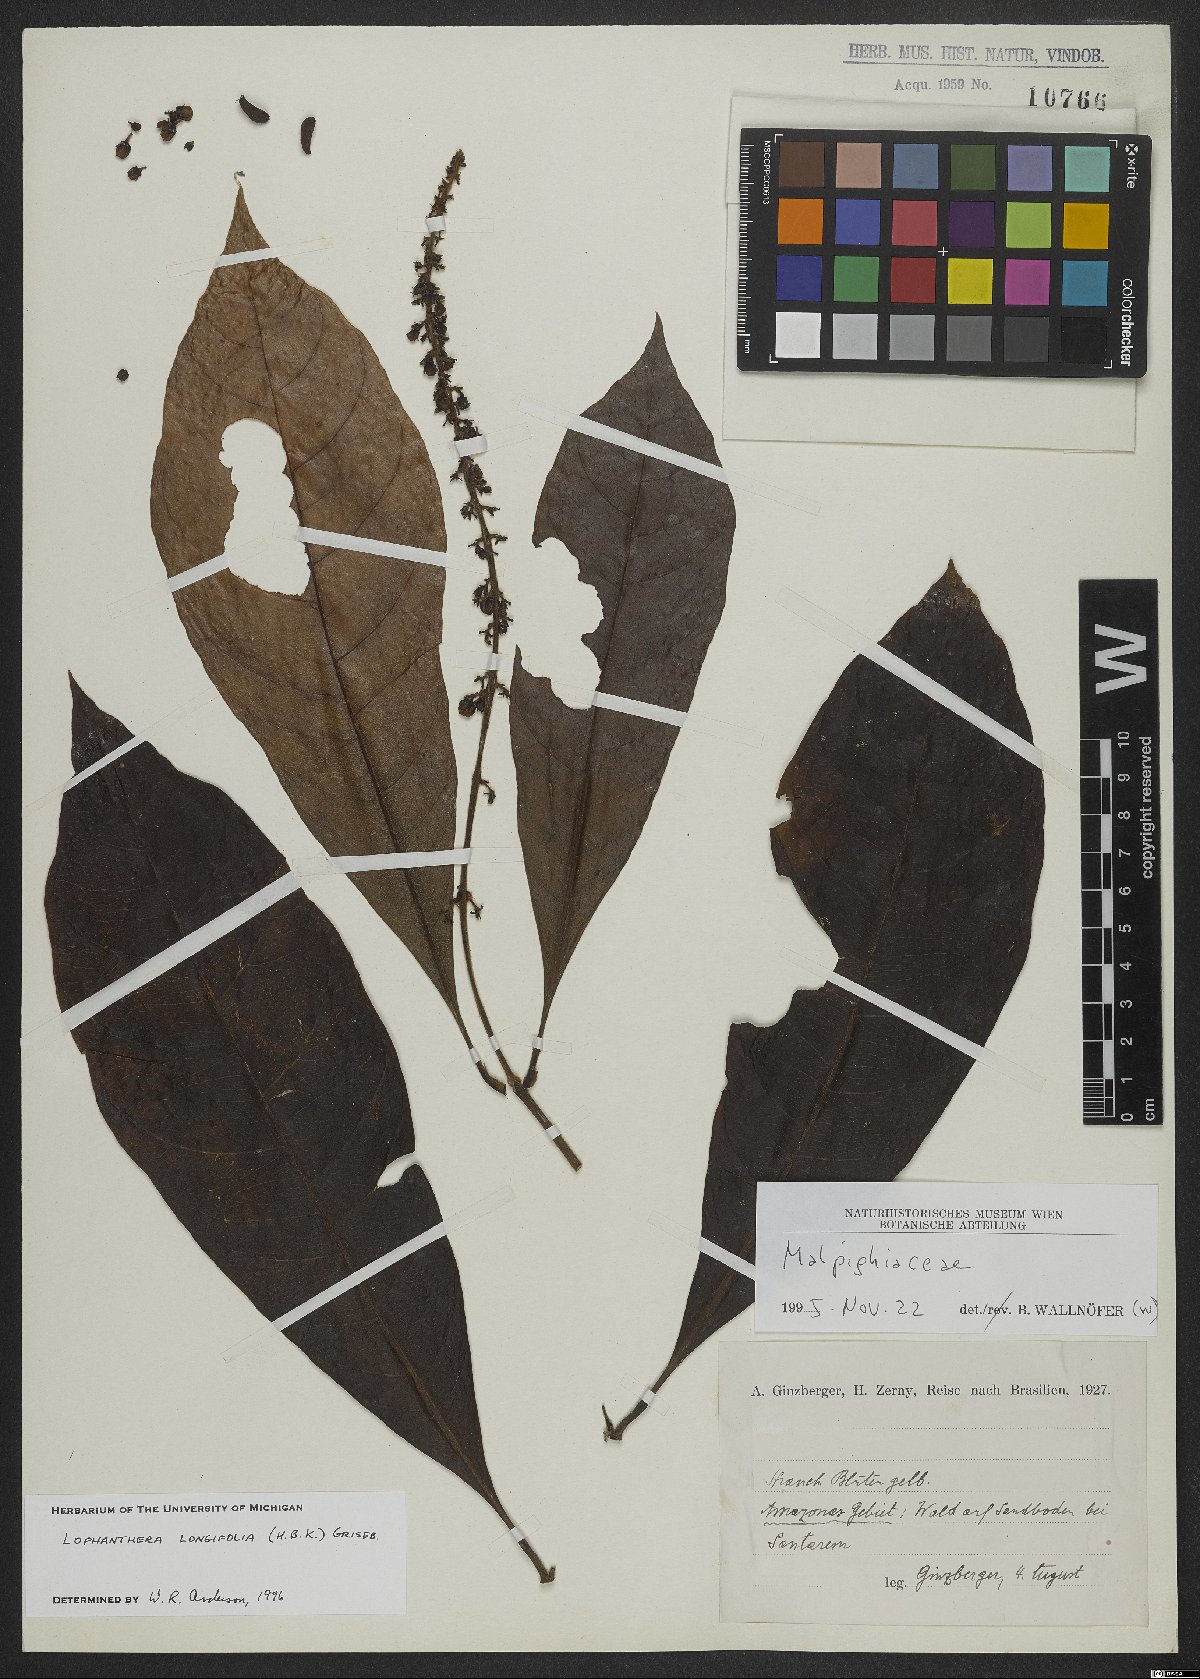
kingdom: Plantae
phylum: Tracheophyta
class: Magnoliopsida
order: Malpighiales
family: Malpighiaceae
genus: Lophanthera
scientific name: Lophanthera longifolia
